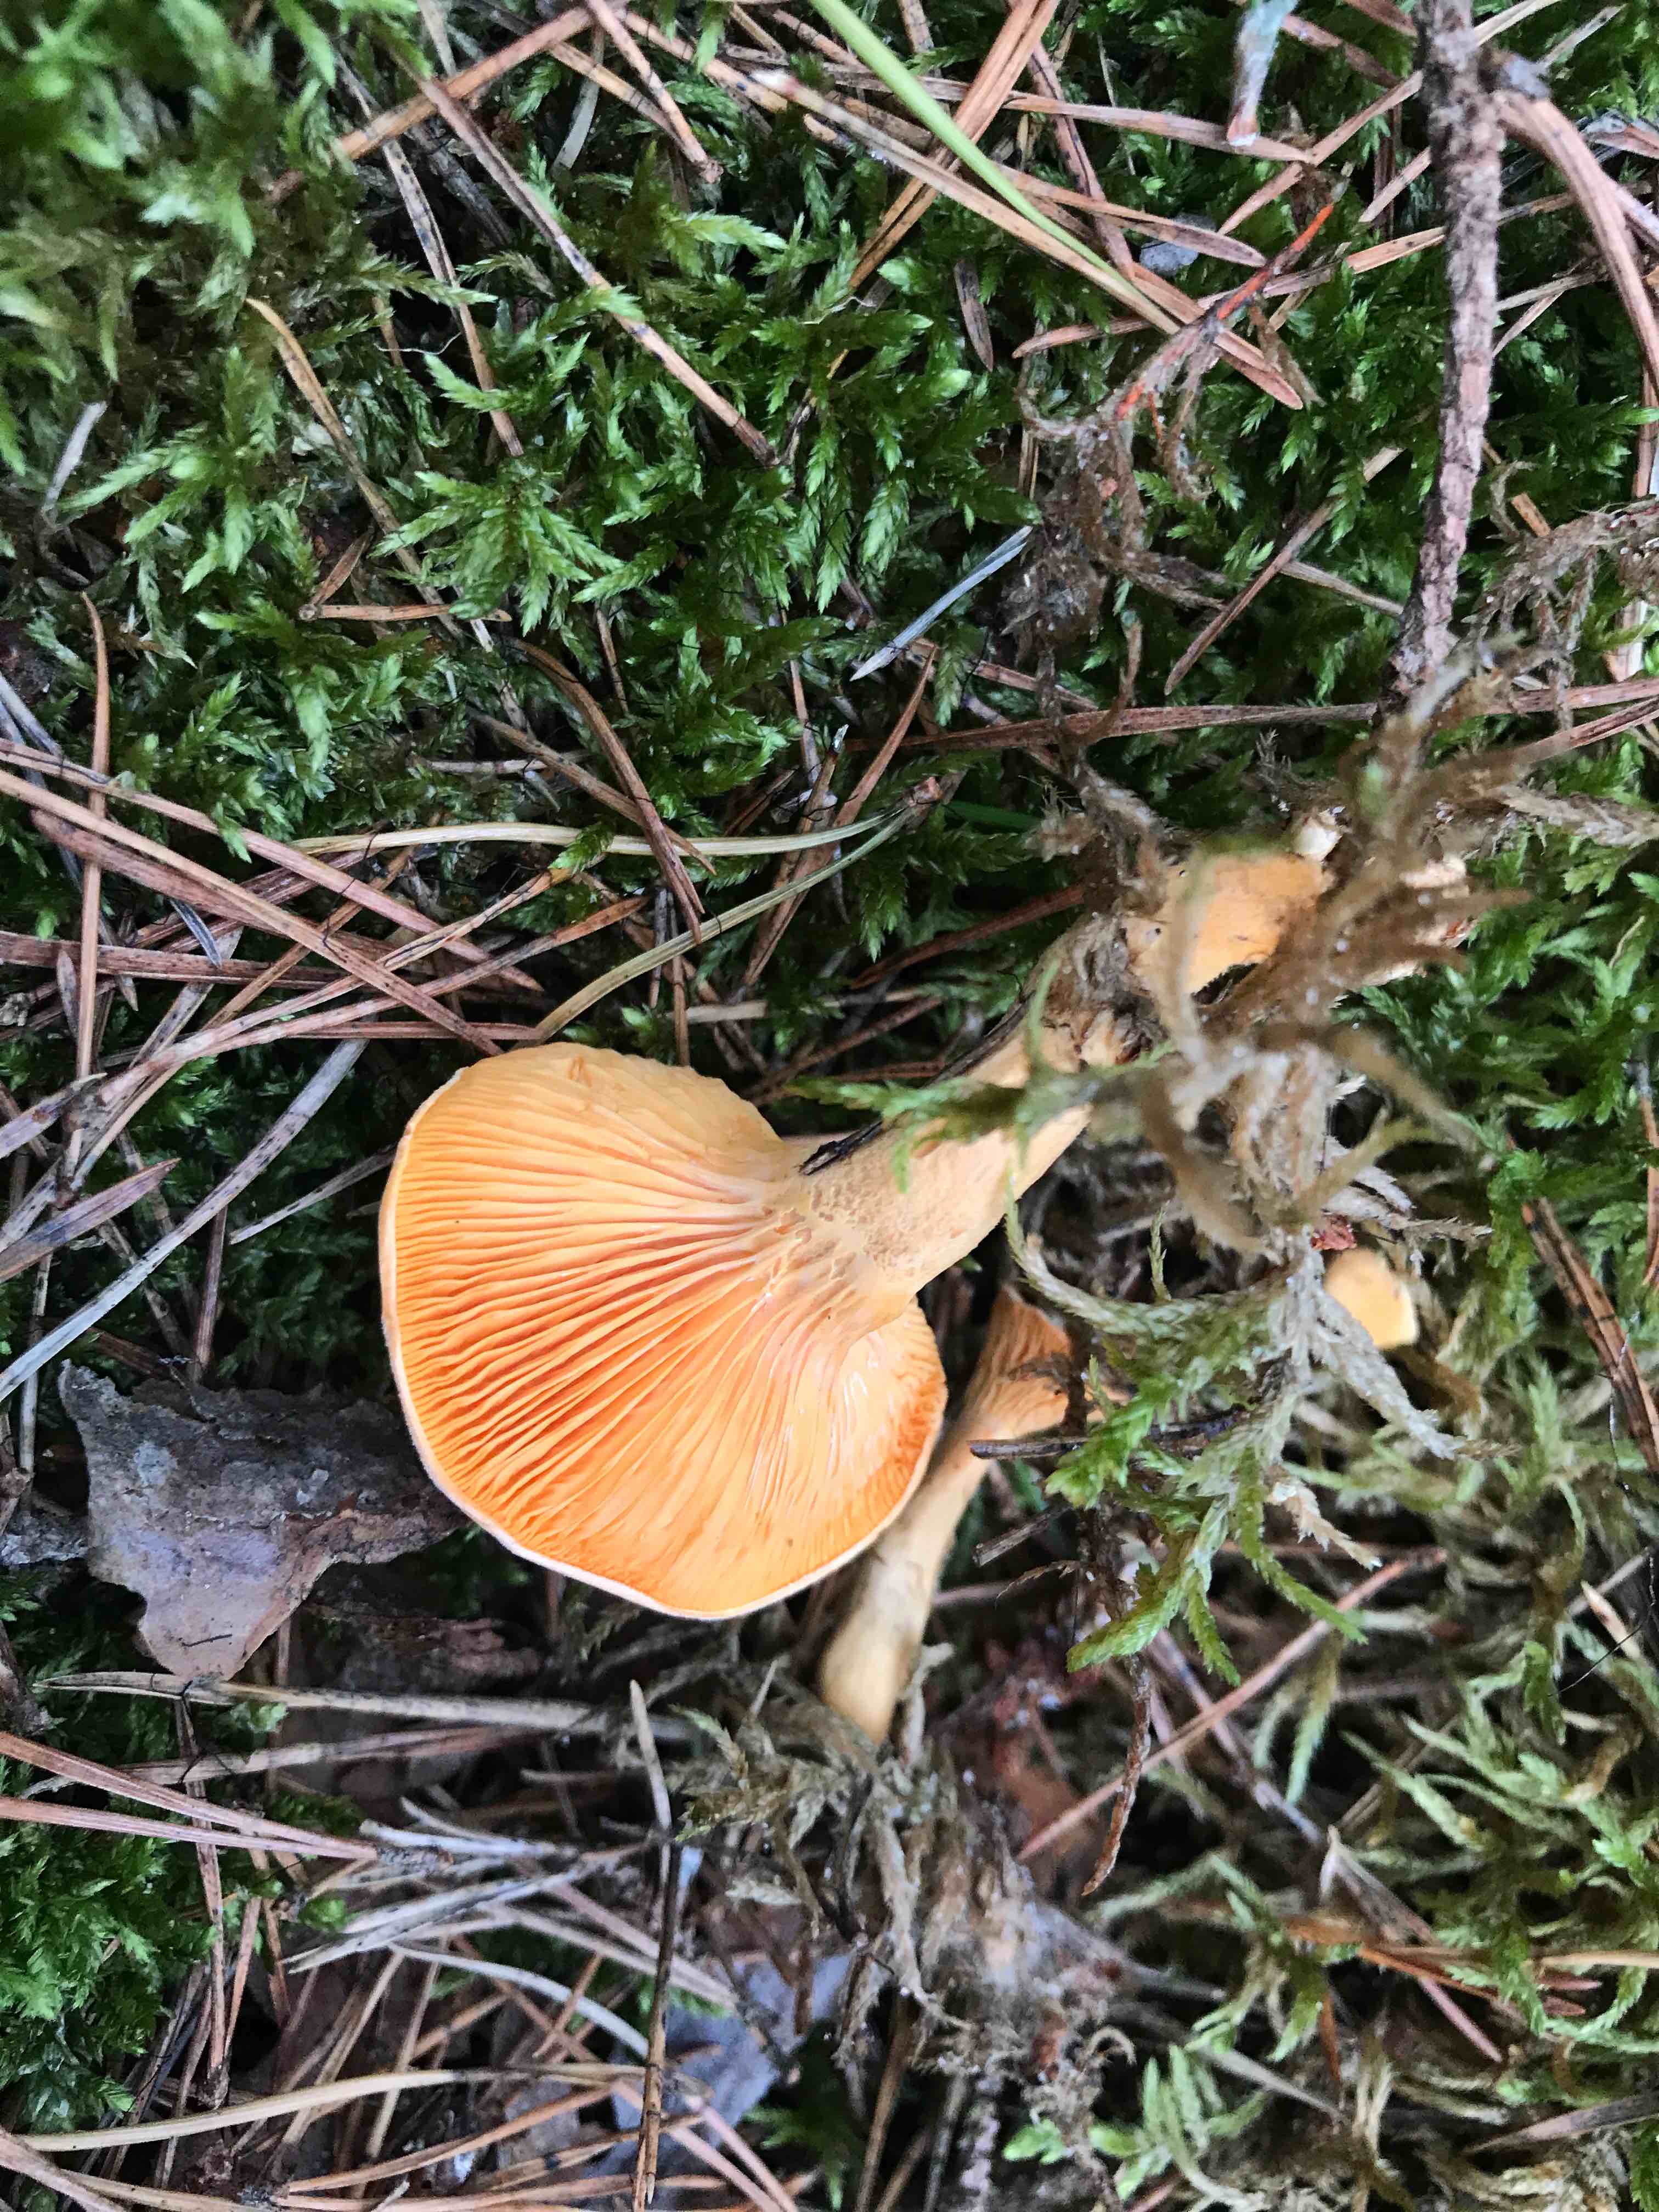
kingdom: Fungi
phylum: Basidiomycota
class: Agaricomycetes
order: Boletales
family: Hygrophoropsidaceae
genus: Hygrophoropsis
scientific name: Hygrophoropsis aurantiaca
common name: almindelig orangekantarel
